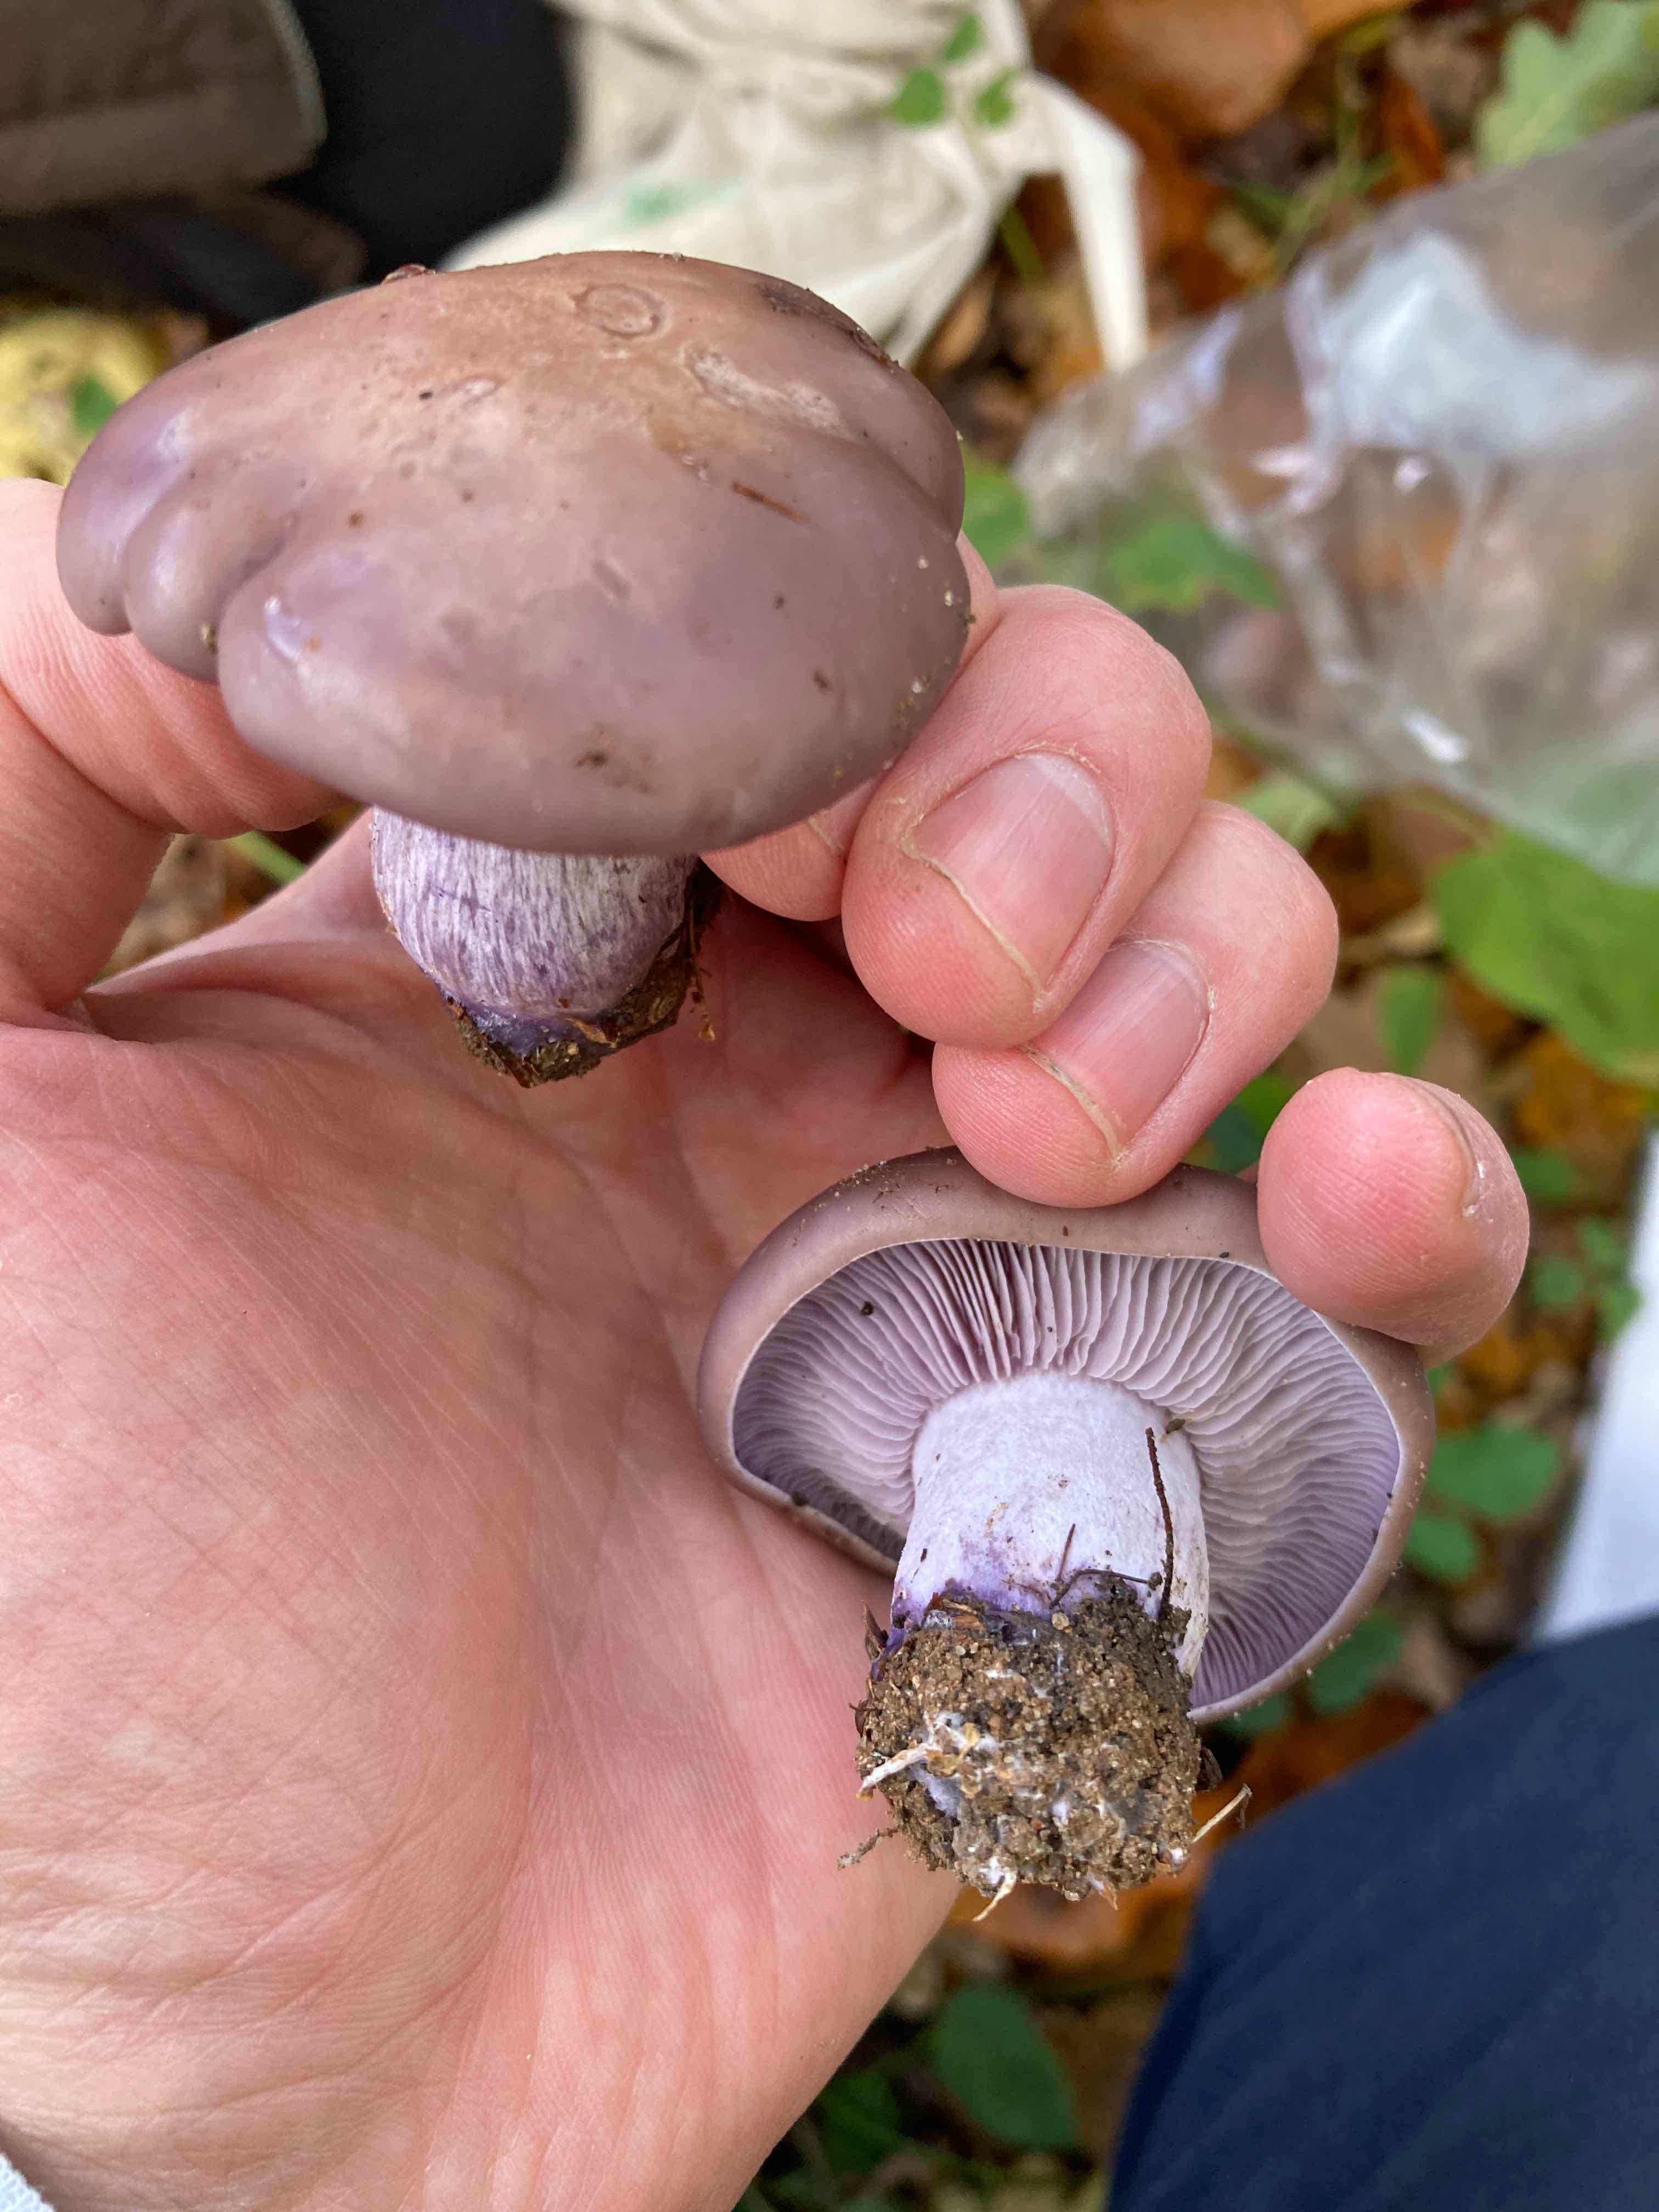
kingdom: Fungi
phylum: Basidiomycota
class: Agaricomycetes
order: Agaricales
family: Tricholomataceae
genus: Lepista
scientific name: Lepista nuda
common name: violet hekseringshat
